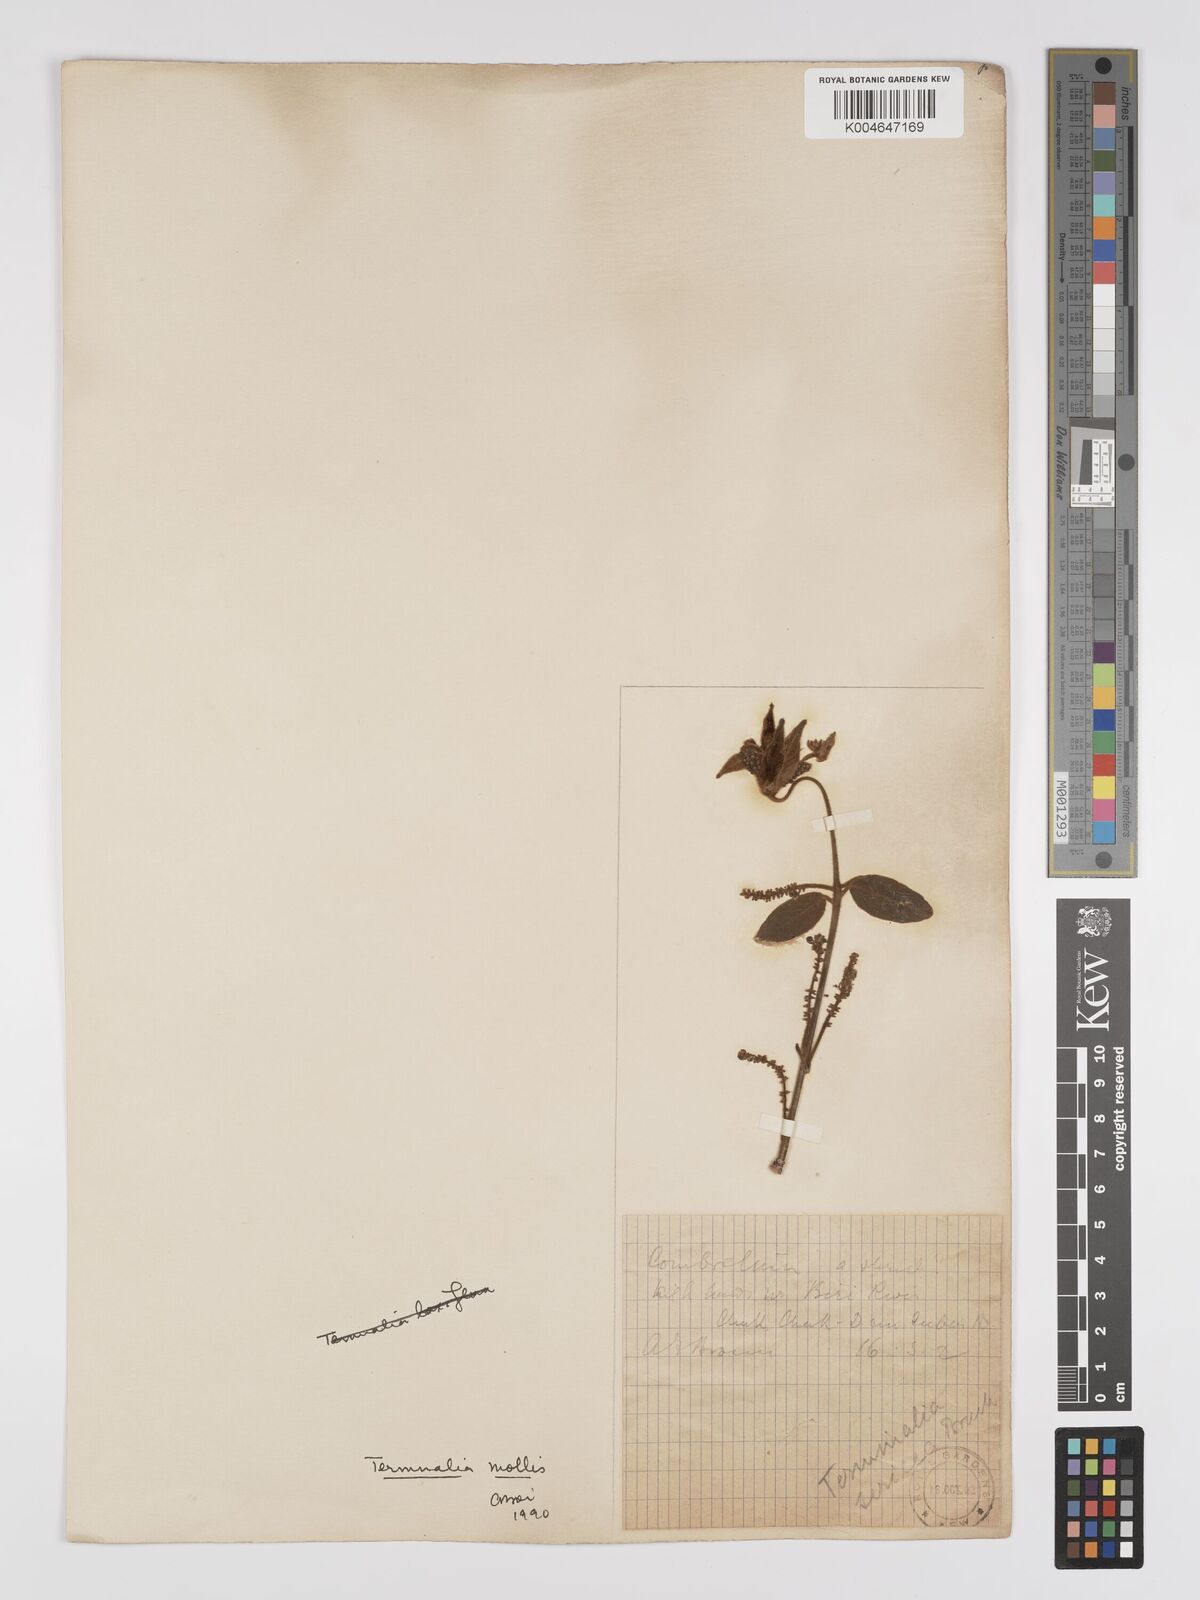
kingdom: Plantae
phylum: Tracheophyta
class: Magnoliopsida
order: Myrtales
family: Combretaceae
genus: Terminalia
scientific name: Terminalia mollis
